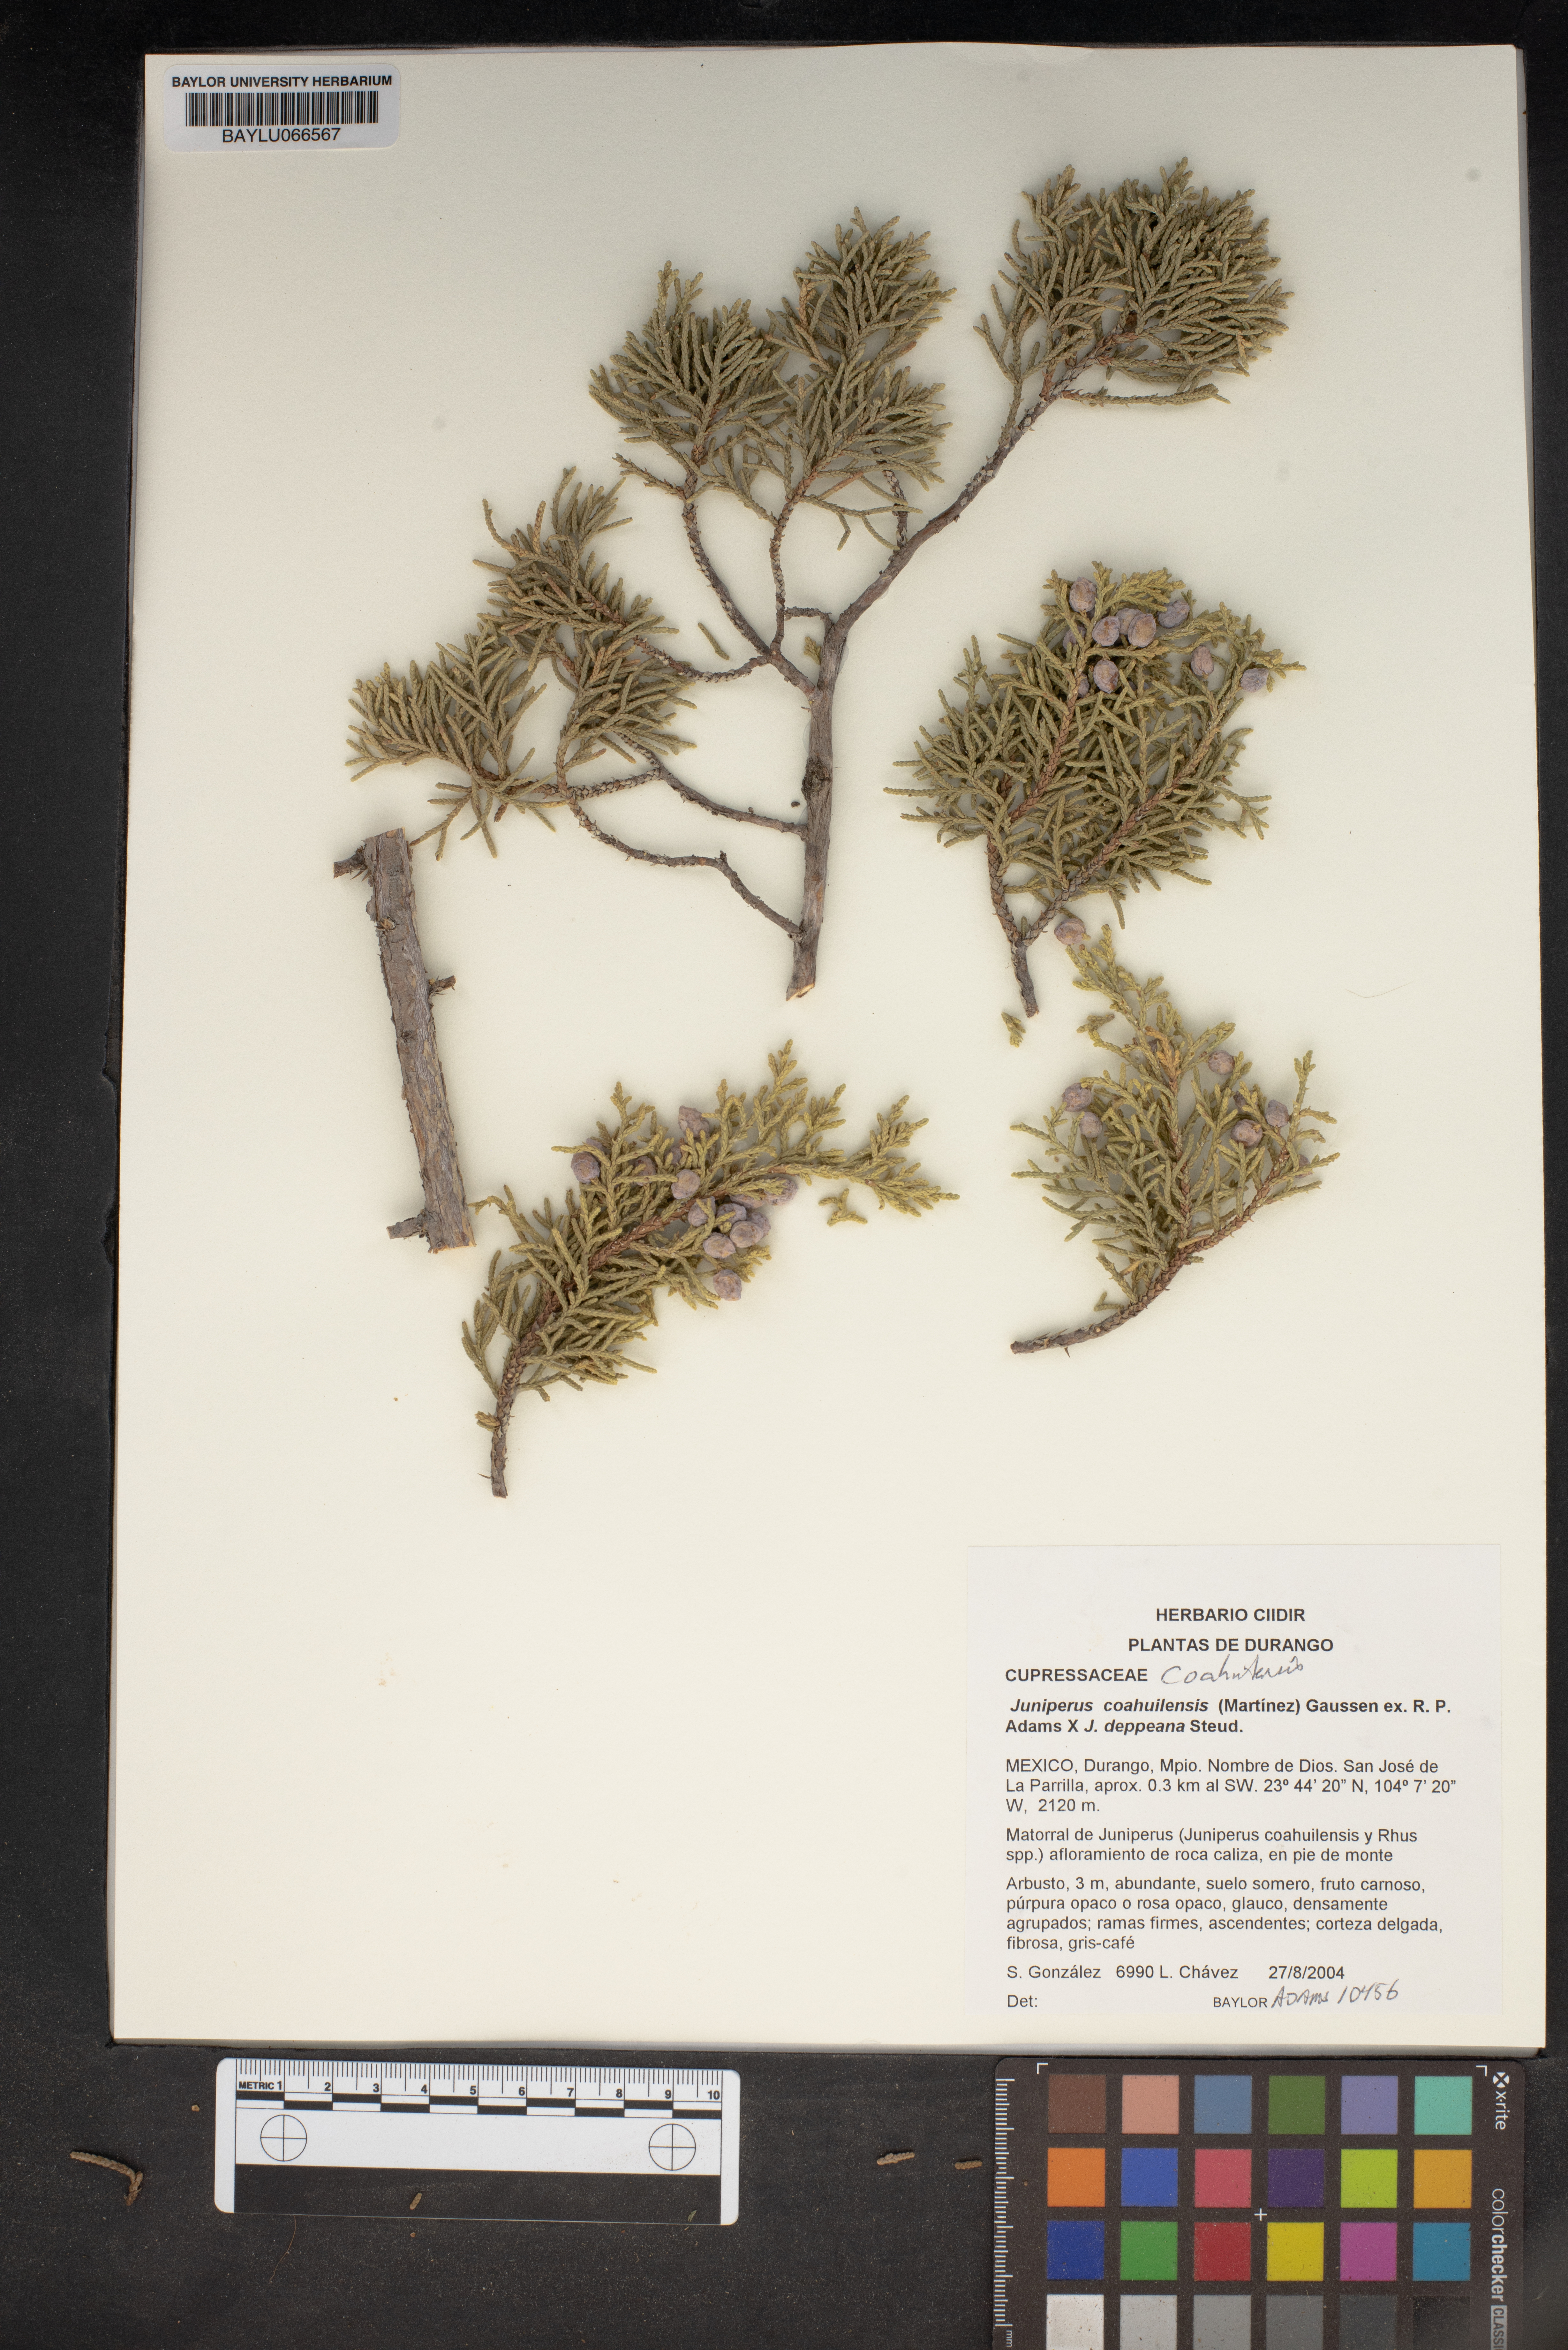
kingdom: Plantae
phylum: Tracheophyta
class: Pinopsida
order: Pinales
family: Cupressaceae
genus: Juniperus
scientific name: Juniperus coahuilensis
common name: Roseberry
